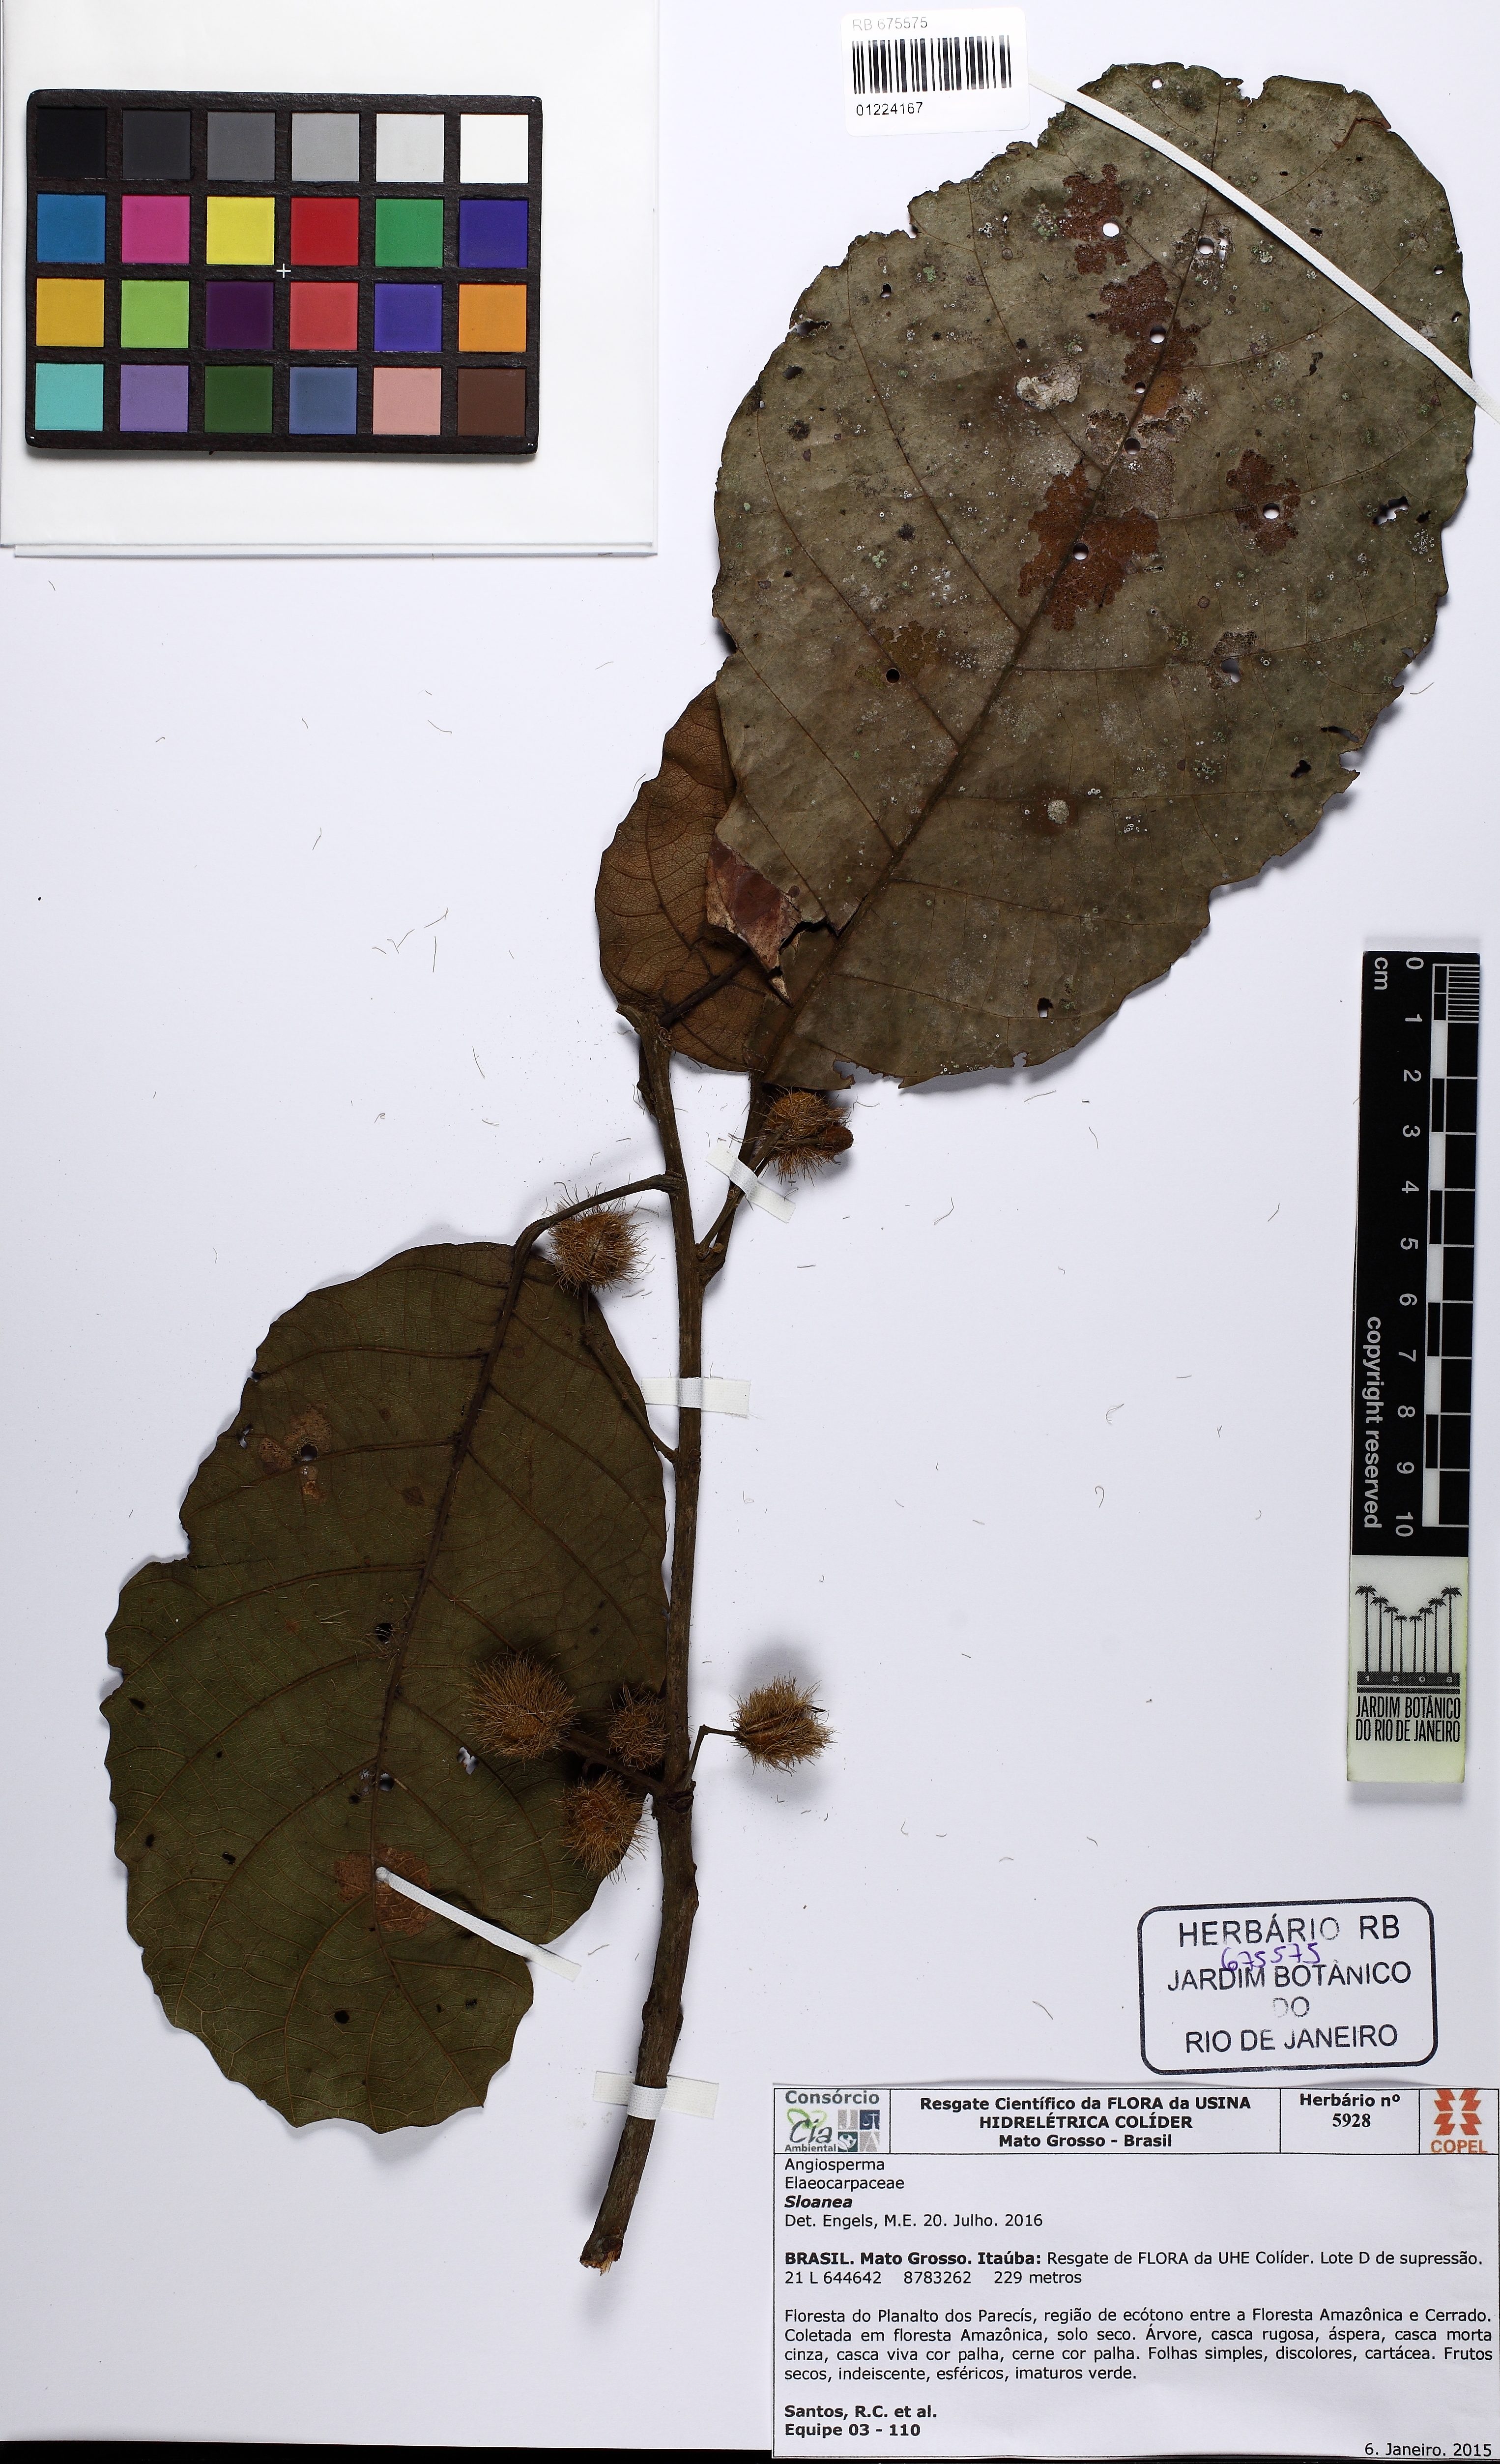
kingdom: Plantae
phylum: Tracheophyta
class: Magnoliopsida
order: Oxalidales
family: Elaeocarpaceae
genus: Sloanea
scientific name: Sloanea
